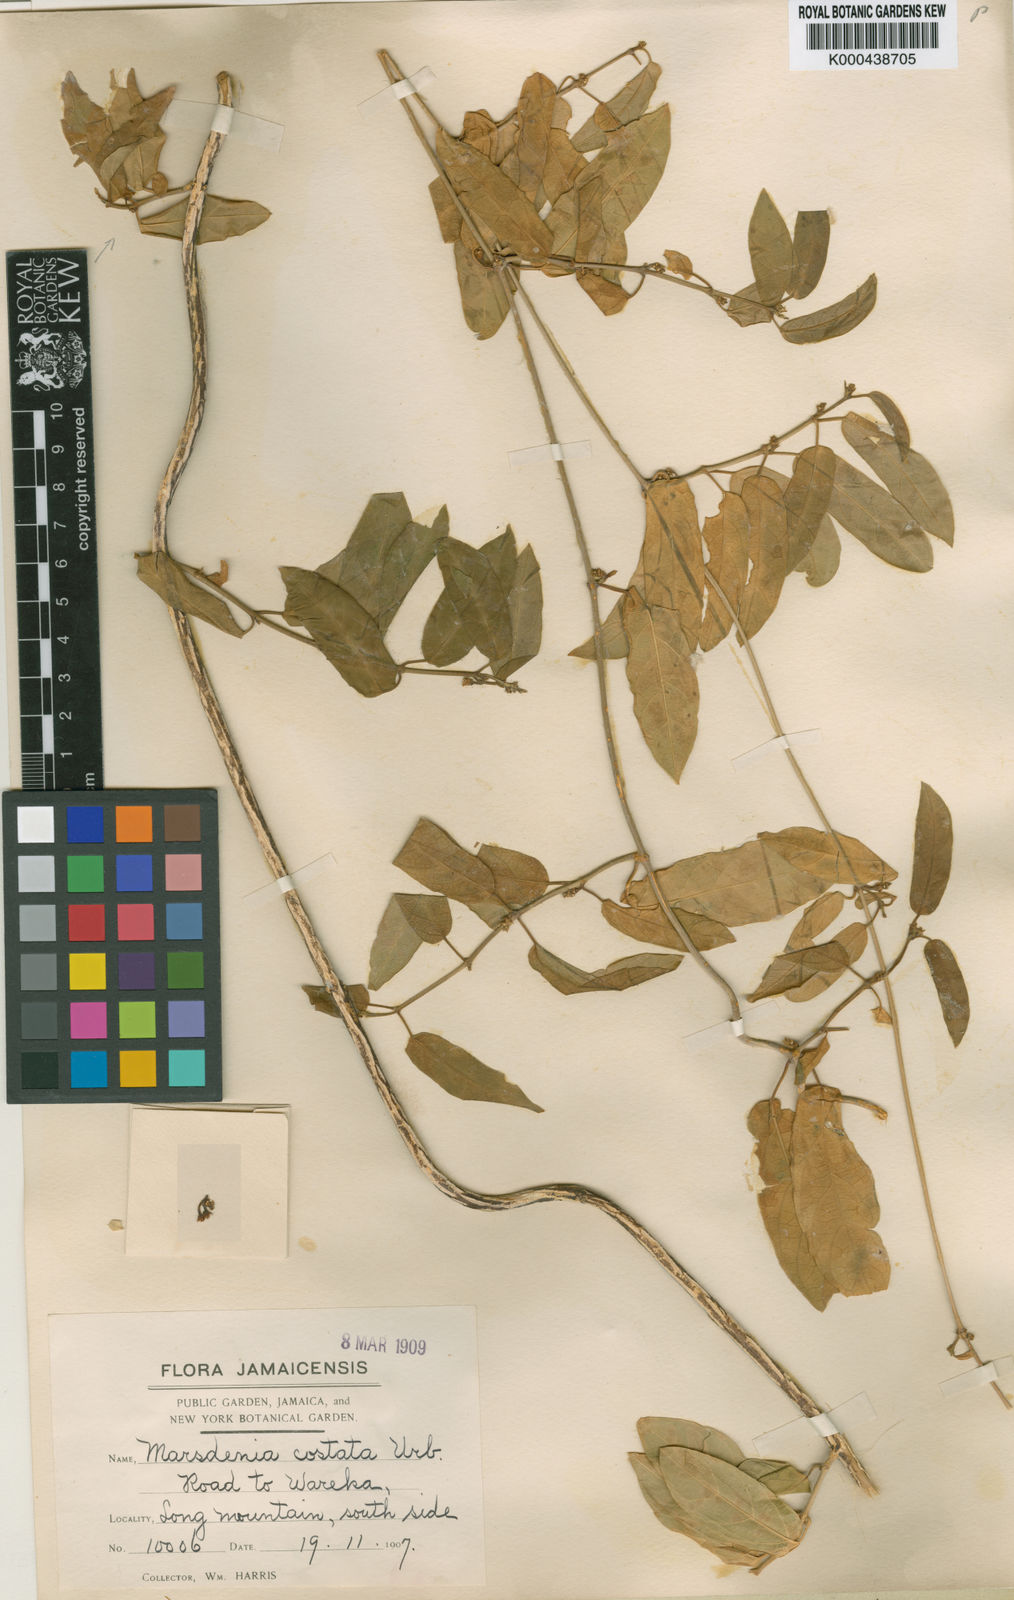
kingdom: Plantae
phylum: Tracheophyta
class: Magnoliopsida
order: Gentianales
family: Apocynaceae
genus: Jacaima
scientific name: Jacaima costata
